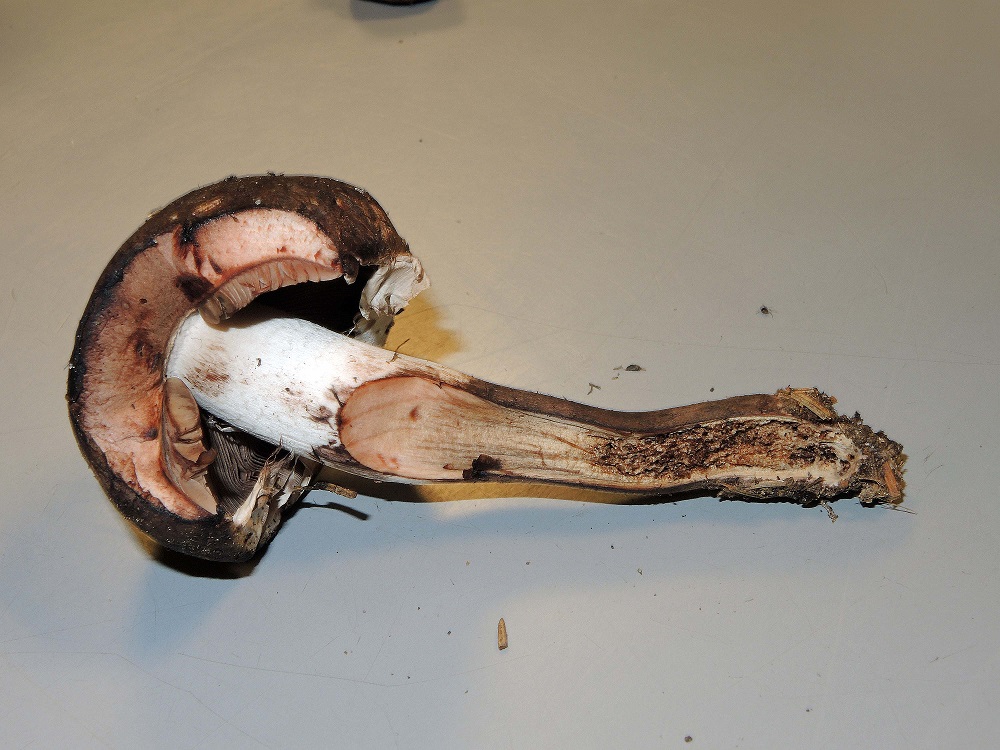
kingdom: Fungi
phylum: Basidiomycota
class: Agaricomycetes
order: Agaricales
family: Agaricaceae
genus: Agaricus
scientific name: Agaricus langei
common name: stor blod-champignon
